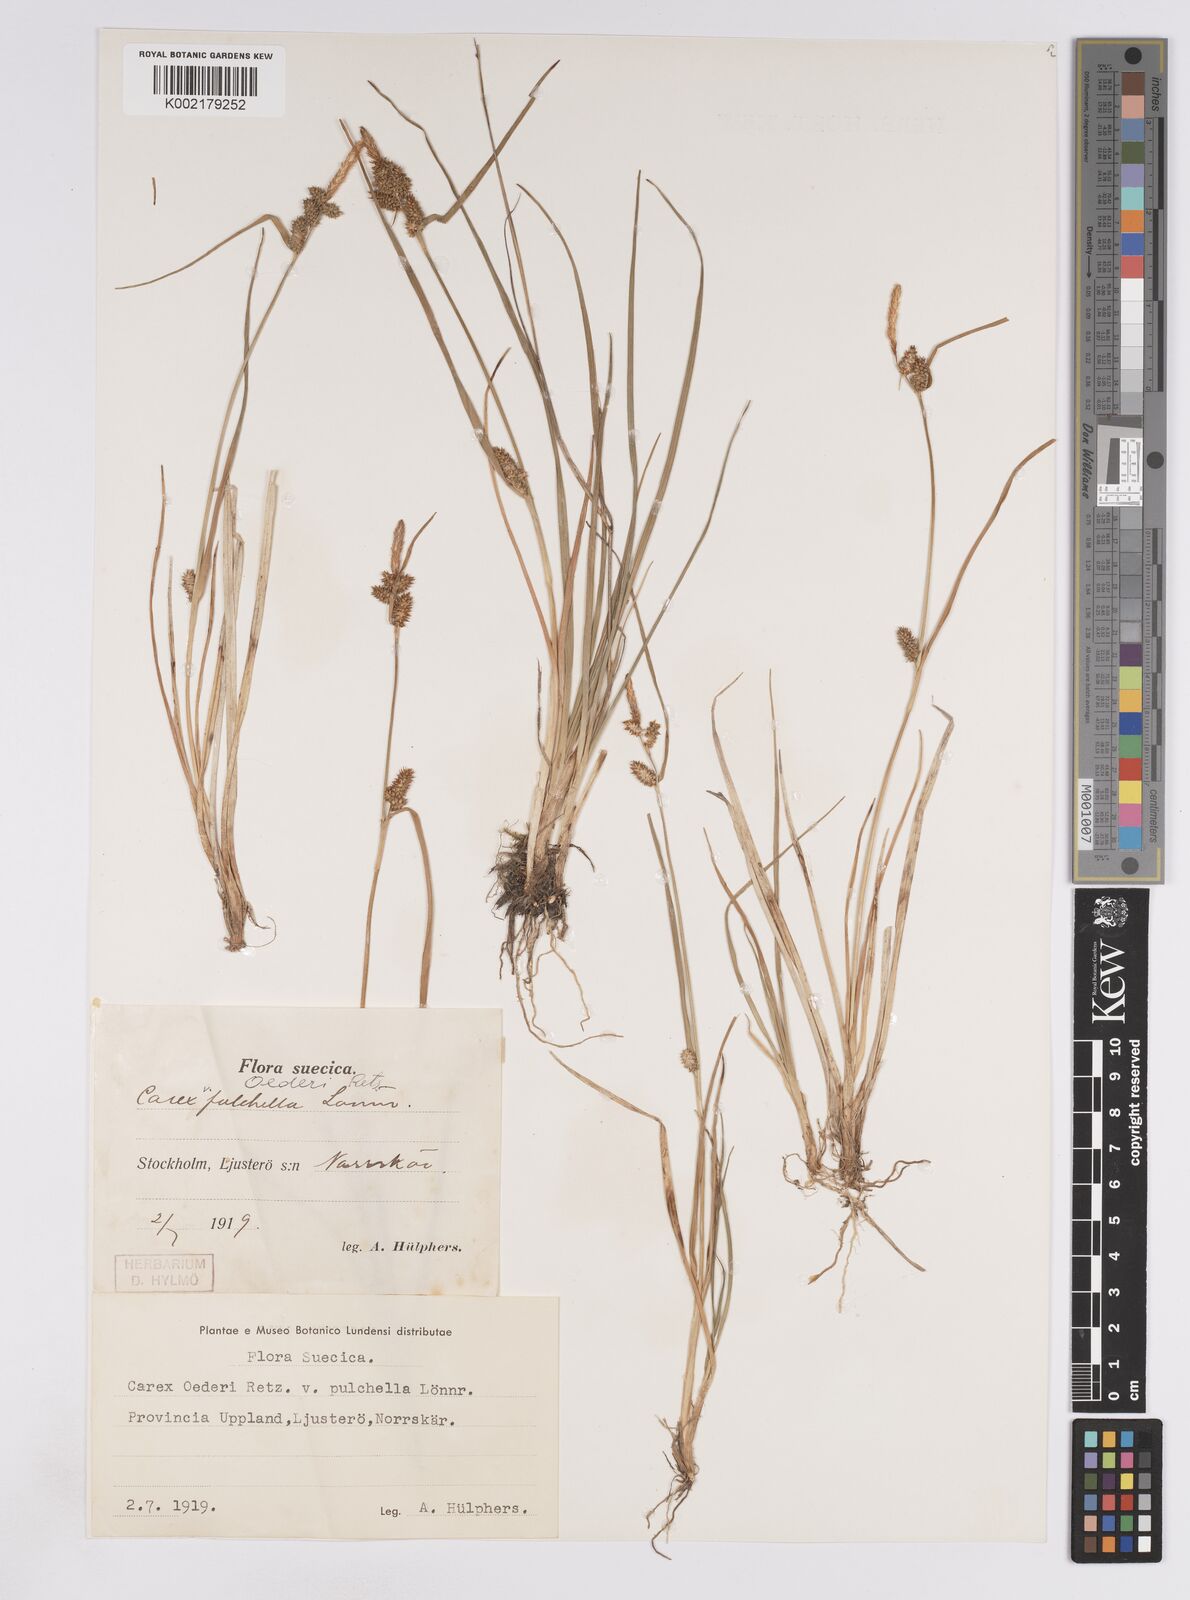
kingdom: Plantae
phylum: Tracheophyta
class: Liliopsida
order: Poales
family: Cyperaceae
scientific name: Cyperaceae
